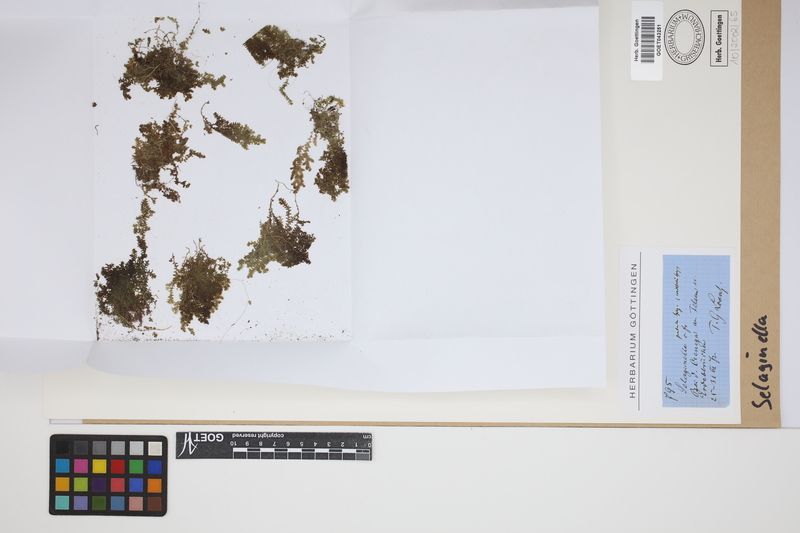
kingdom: Plantae
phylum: Tracheophyta
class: Lycopodiopsida
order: Selaginellales
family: Selaginellaceae
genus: Selaginella
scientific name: Selaginella
